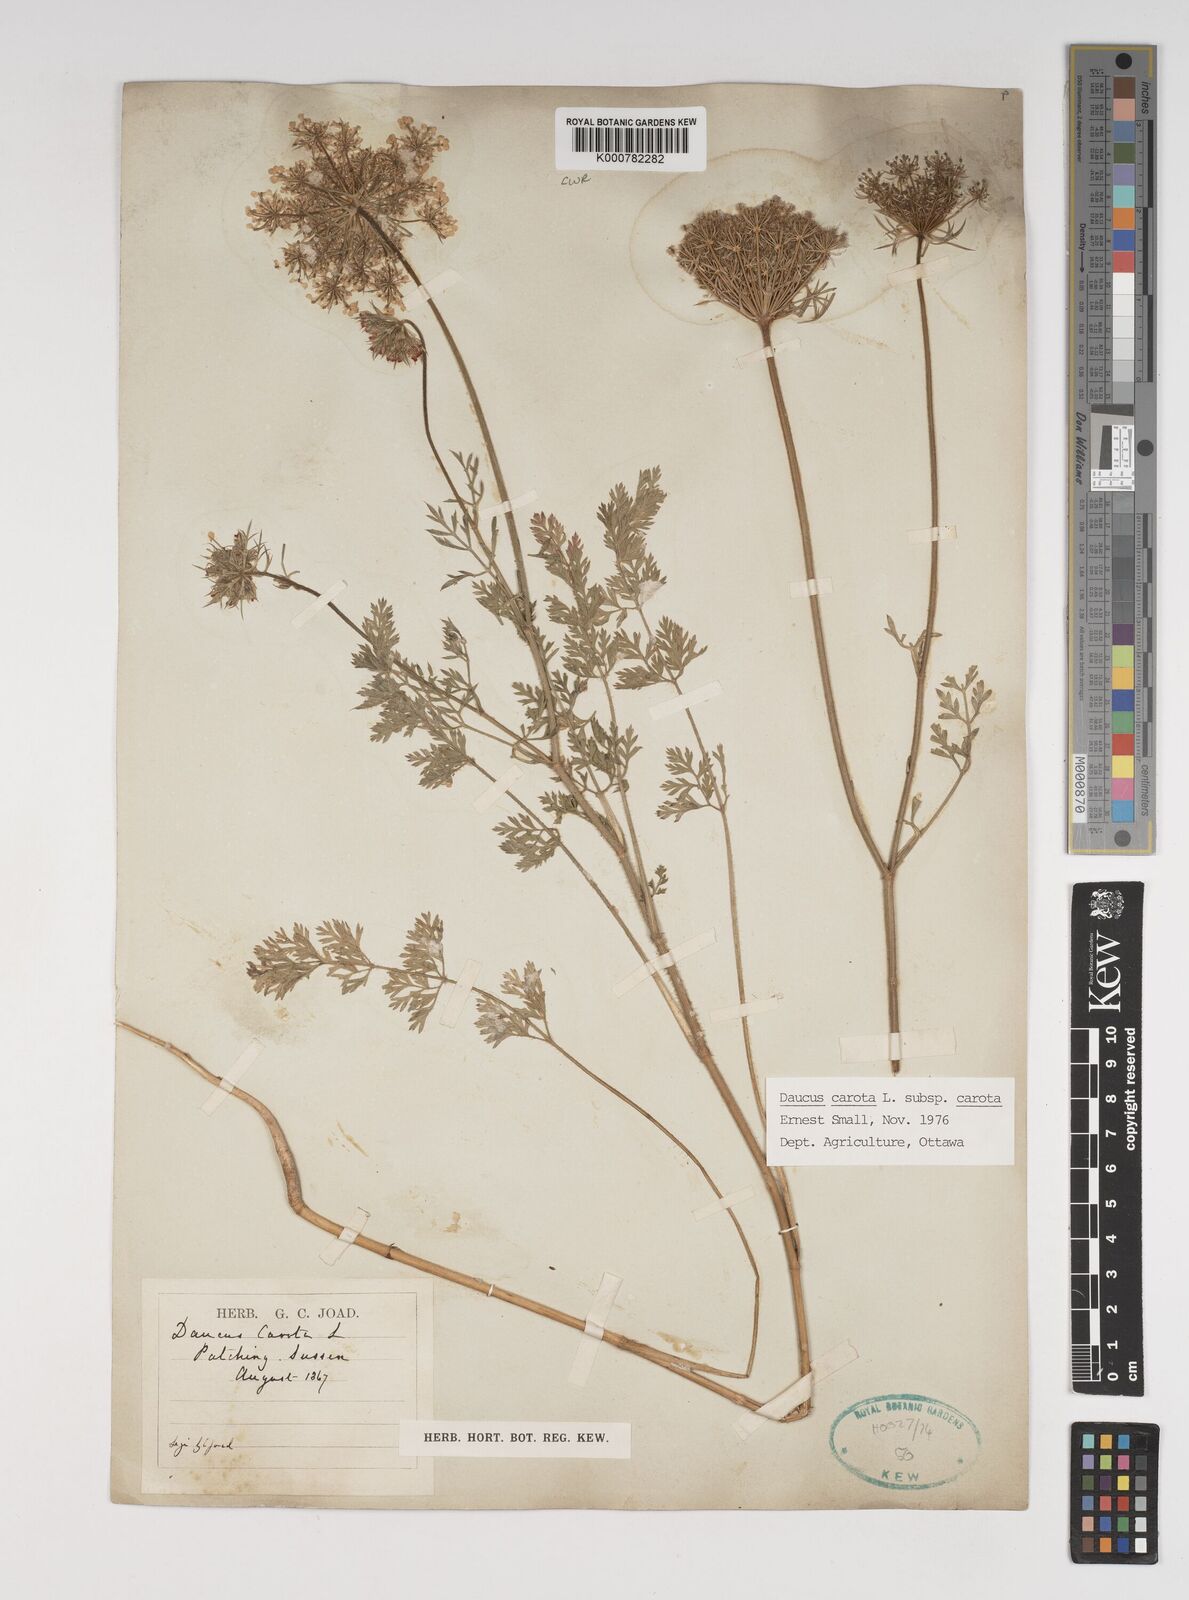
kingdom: Plantae
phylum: Tracheophyta
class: Magnoliopsida
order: Apiales
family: Apiaceae
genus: Daucus
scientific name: Daucus carota
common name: Wild carrot
